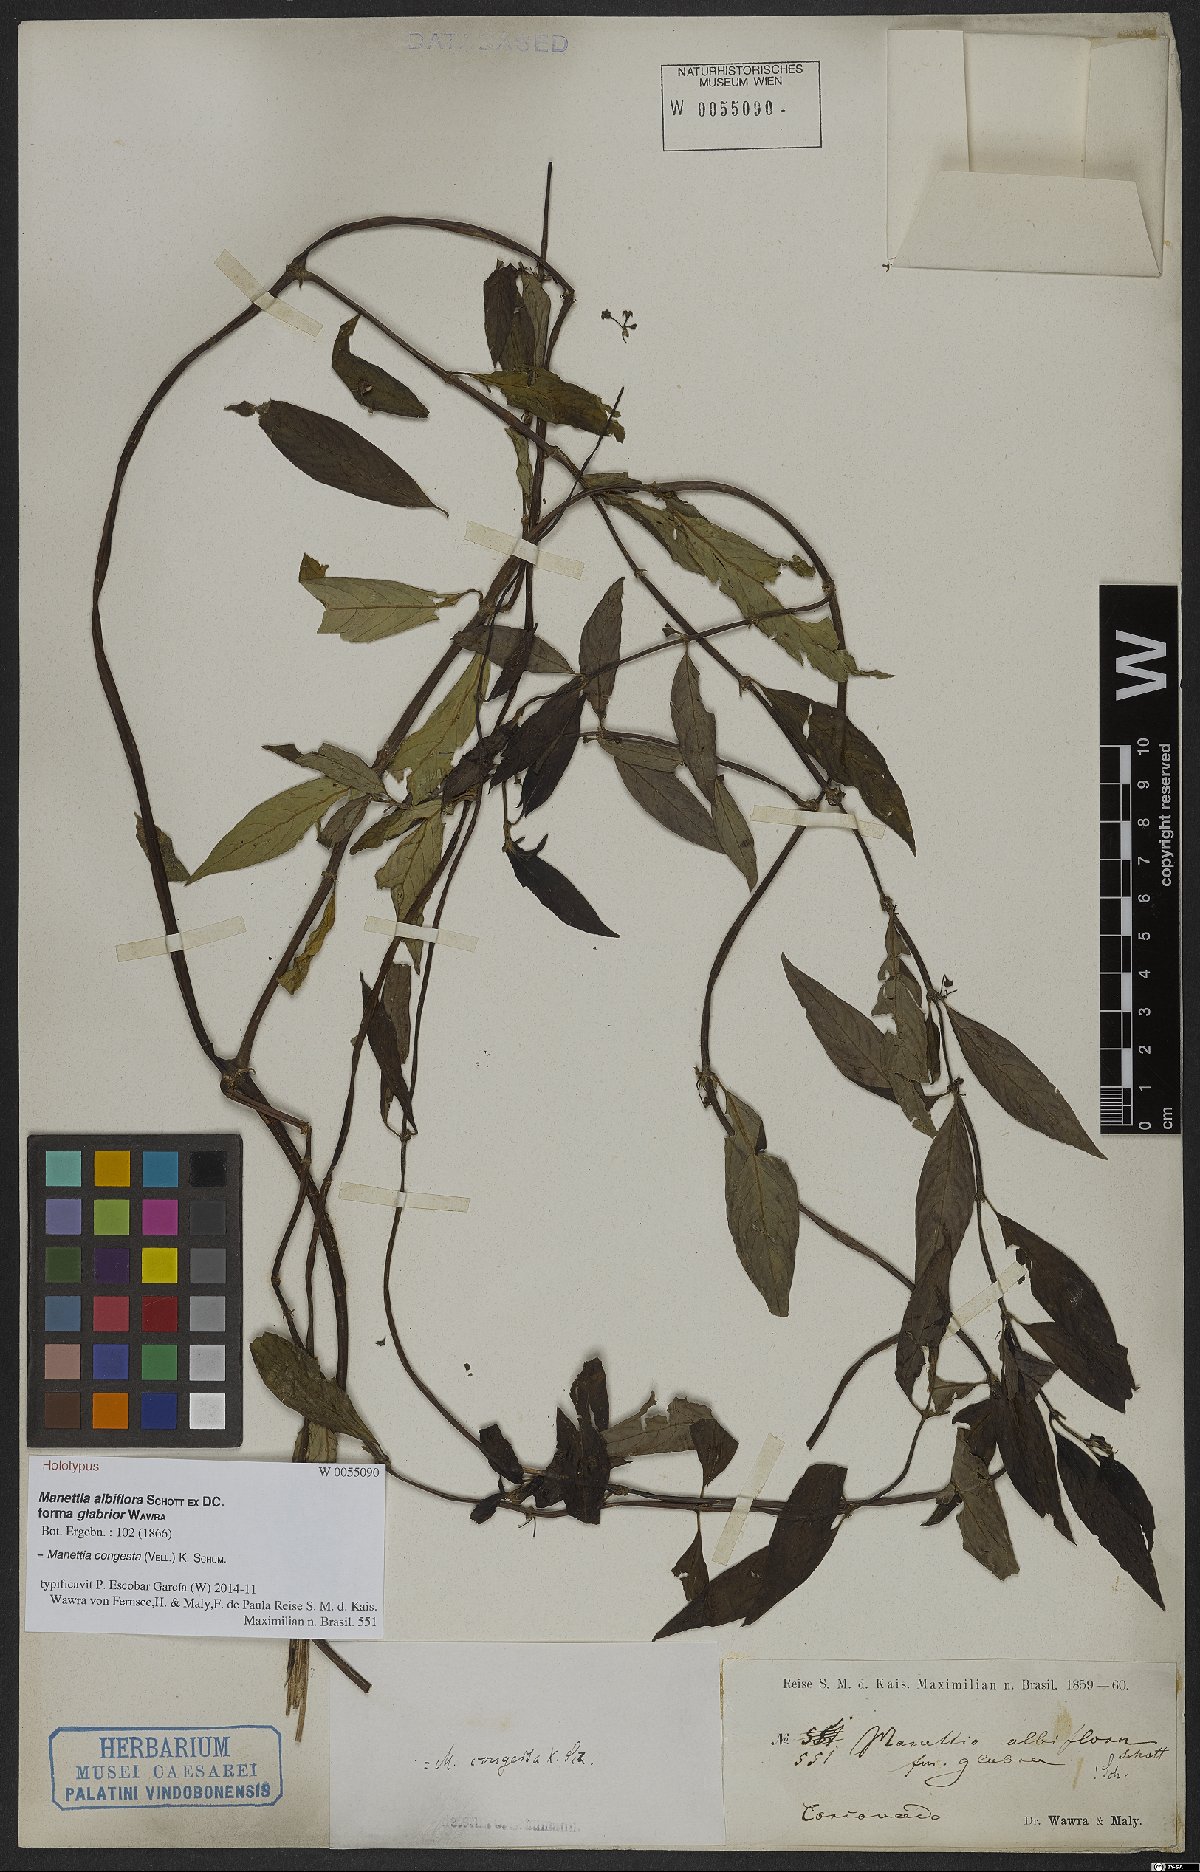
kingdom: Plantae
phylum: Tracheophyta
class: Magnoliopsida
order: Gentianales
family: Rubiaceae
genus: Manettia
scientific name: Manettia congesta
